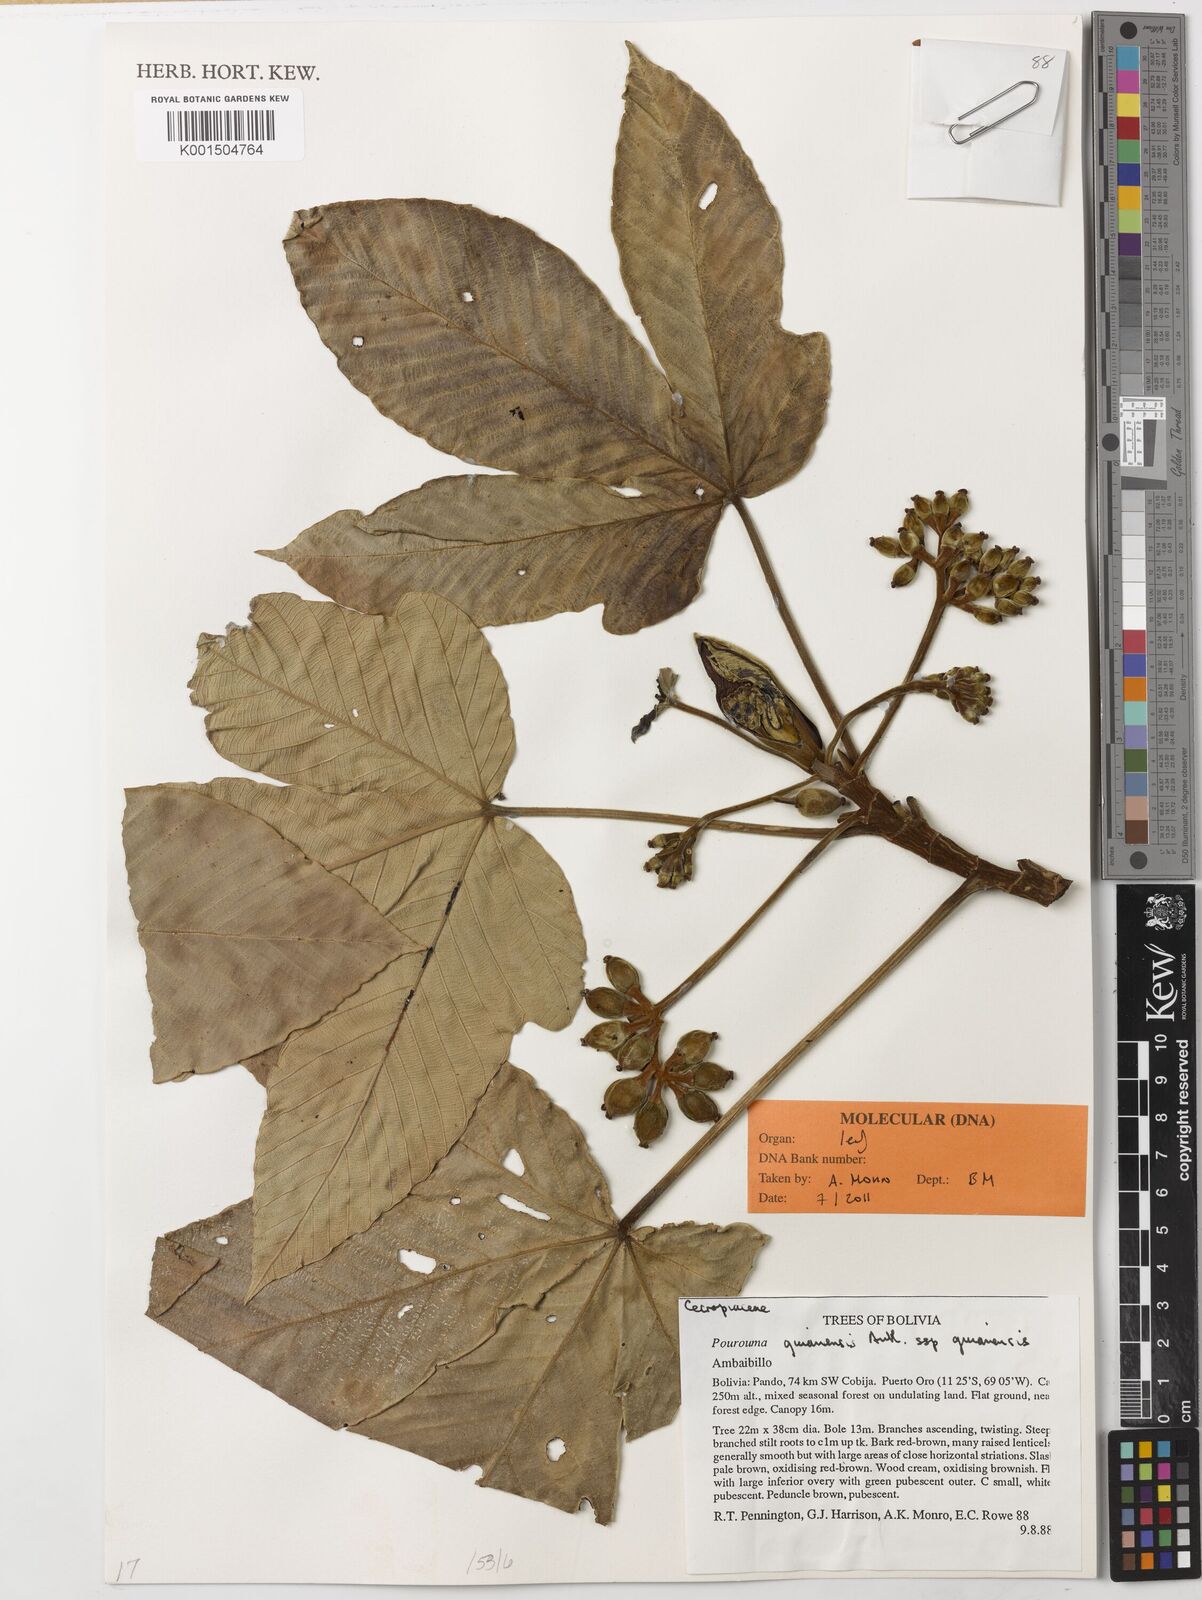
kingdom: Plantae
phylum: Tracheophyta
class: Magnoliopsida
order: Rosales
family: Urticaceae
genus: Pourouma
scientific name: Pourouma guianensis
